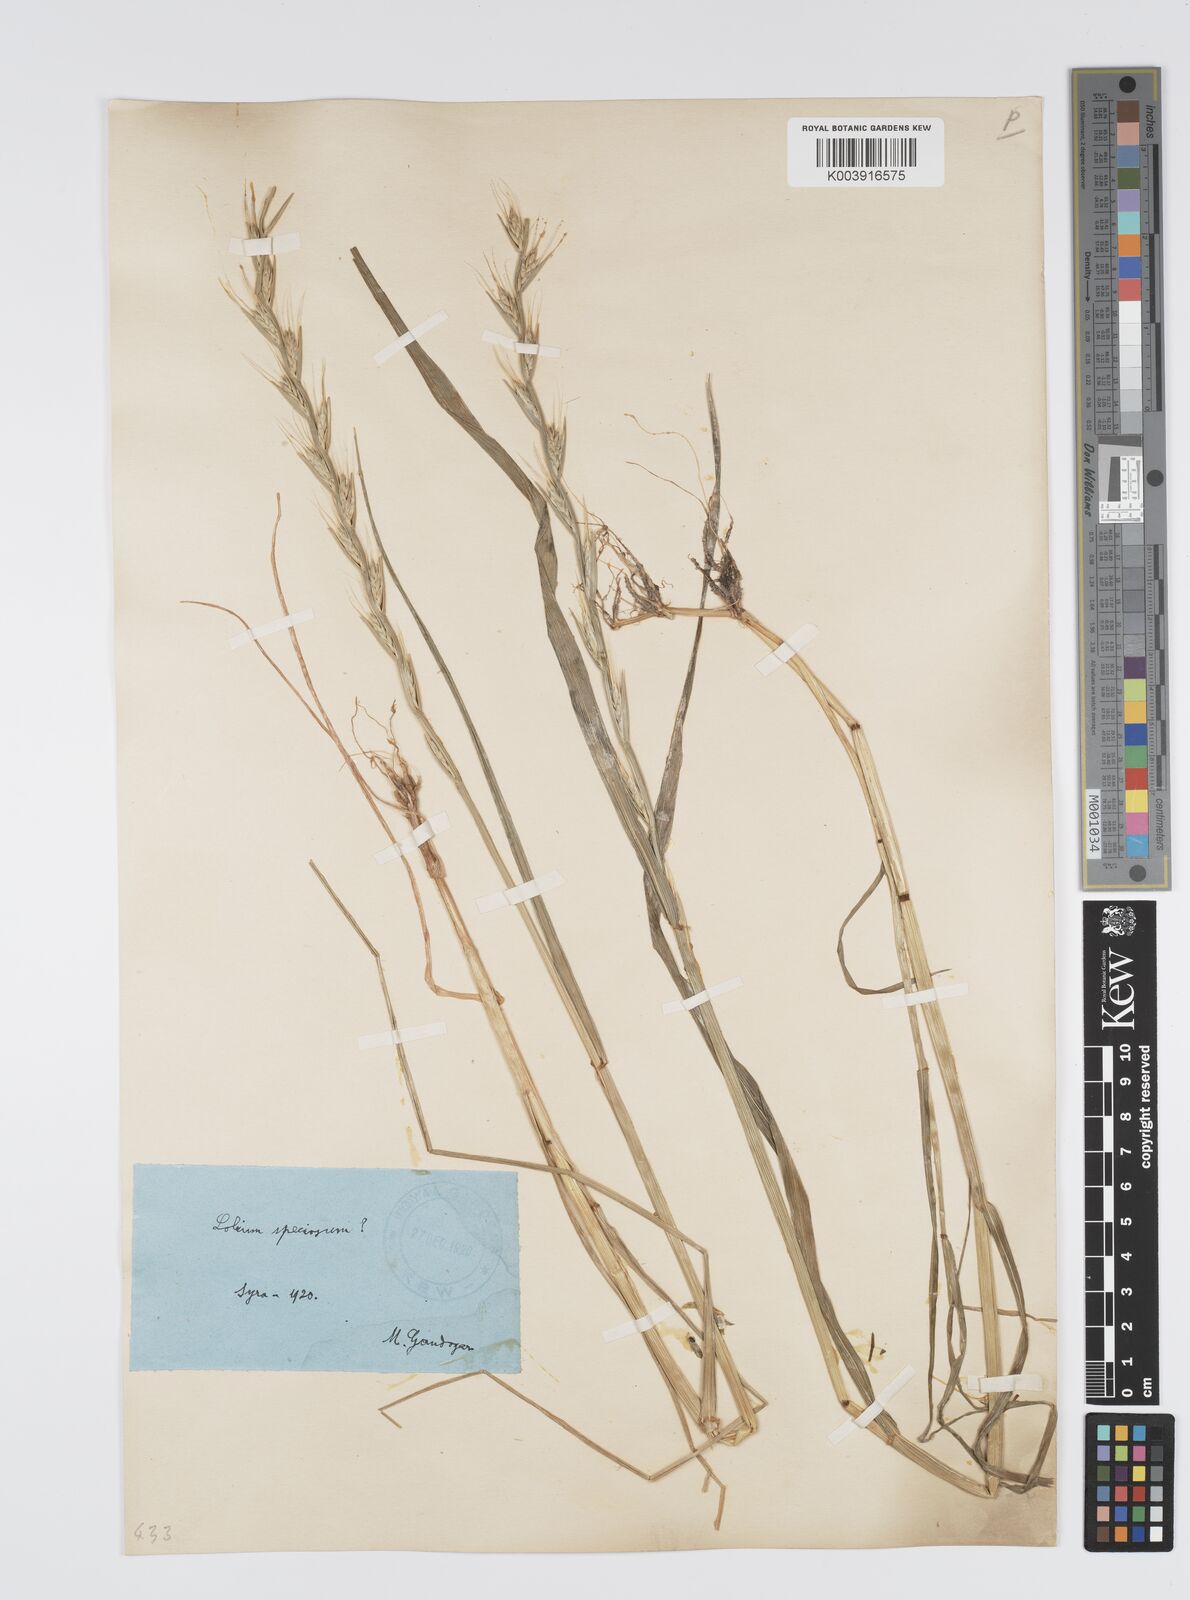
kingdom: Plantae
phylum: Tracheophyta
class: Liliopsida
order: Poales
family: Poaceae
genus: Lolium
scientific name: Lolium temulentum
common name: Darnel
